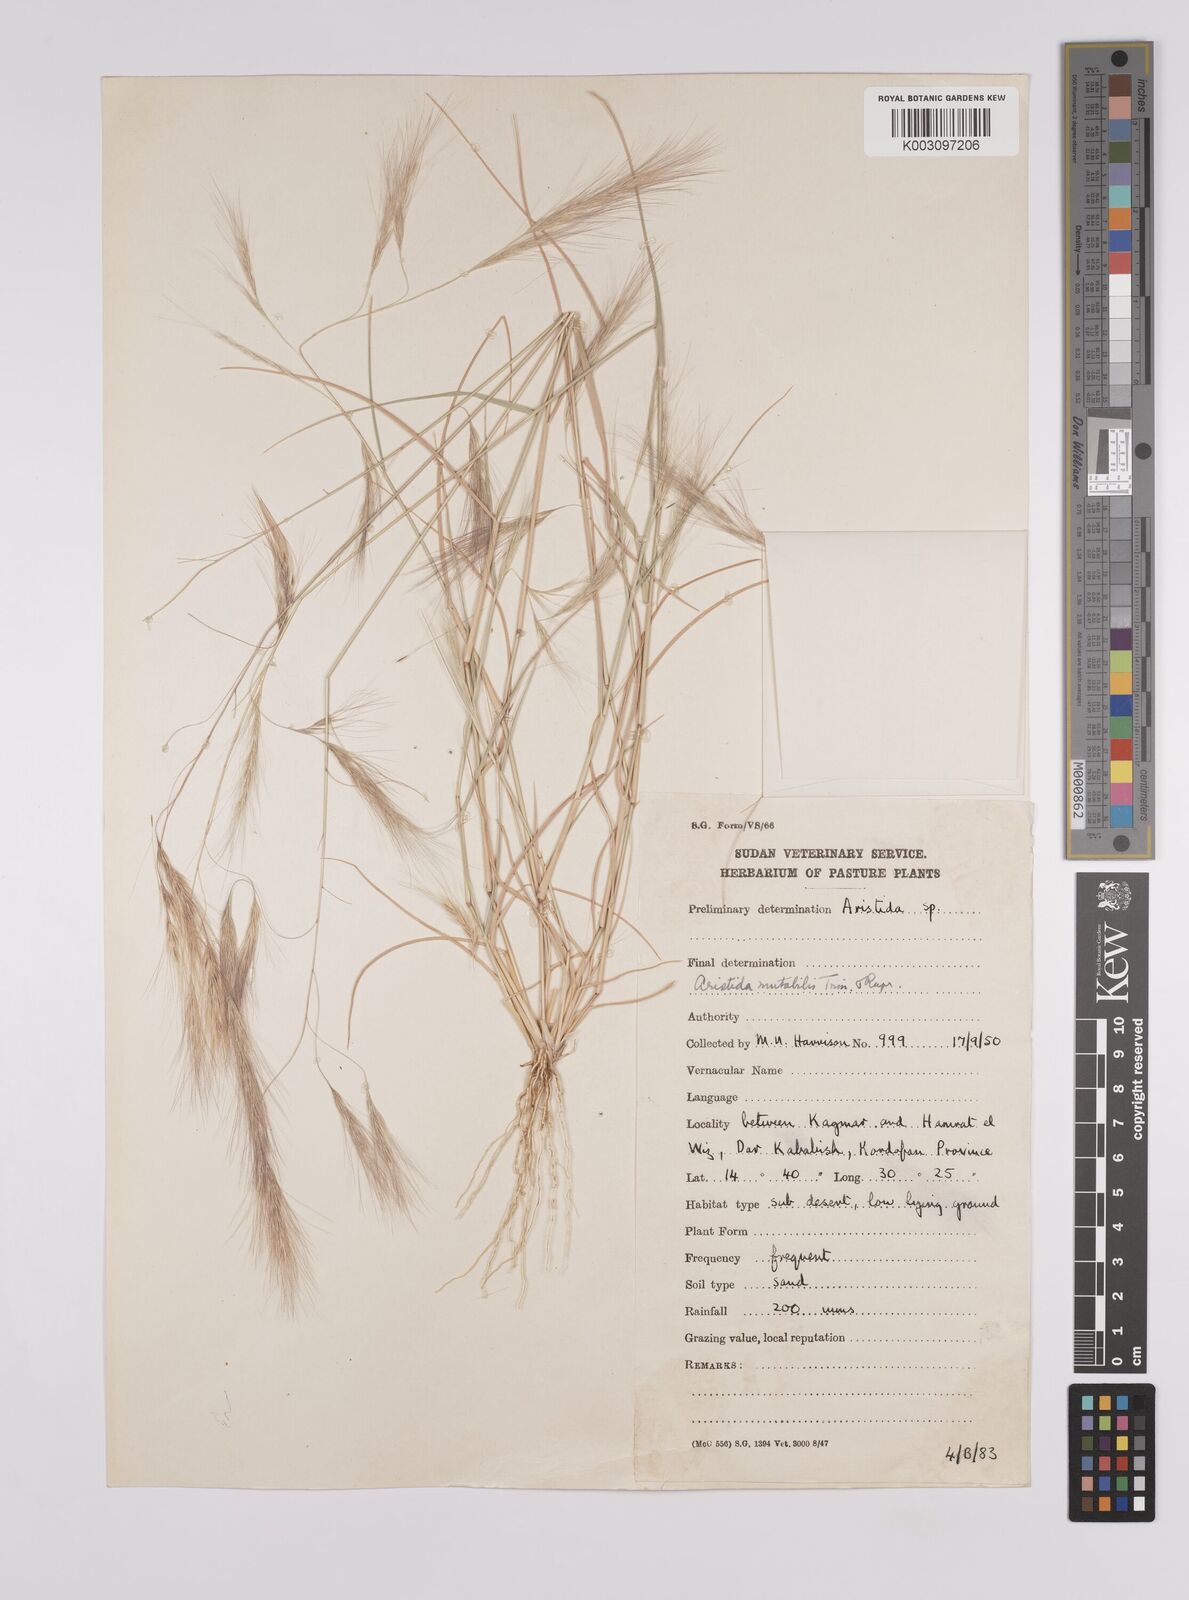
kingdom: Plantae
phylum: Tracheophyta
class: Liliopsida
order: Poales
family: Poaceae
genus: Aristida
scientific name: Aristida mutabilis
